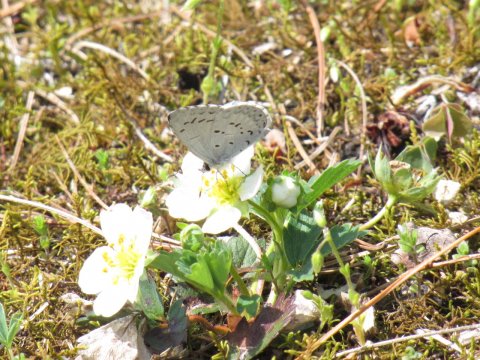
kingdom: Animalia
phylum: Arthropoda
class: Insecta
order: Lepidoptera
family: Lycaenidae
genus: Celastrina
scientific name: Celastrina lucia
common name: Northern Spring Azure
